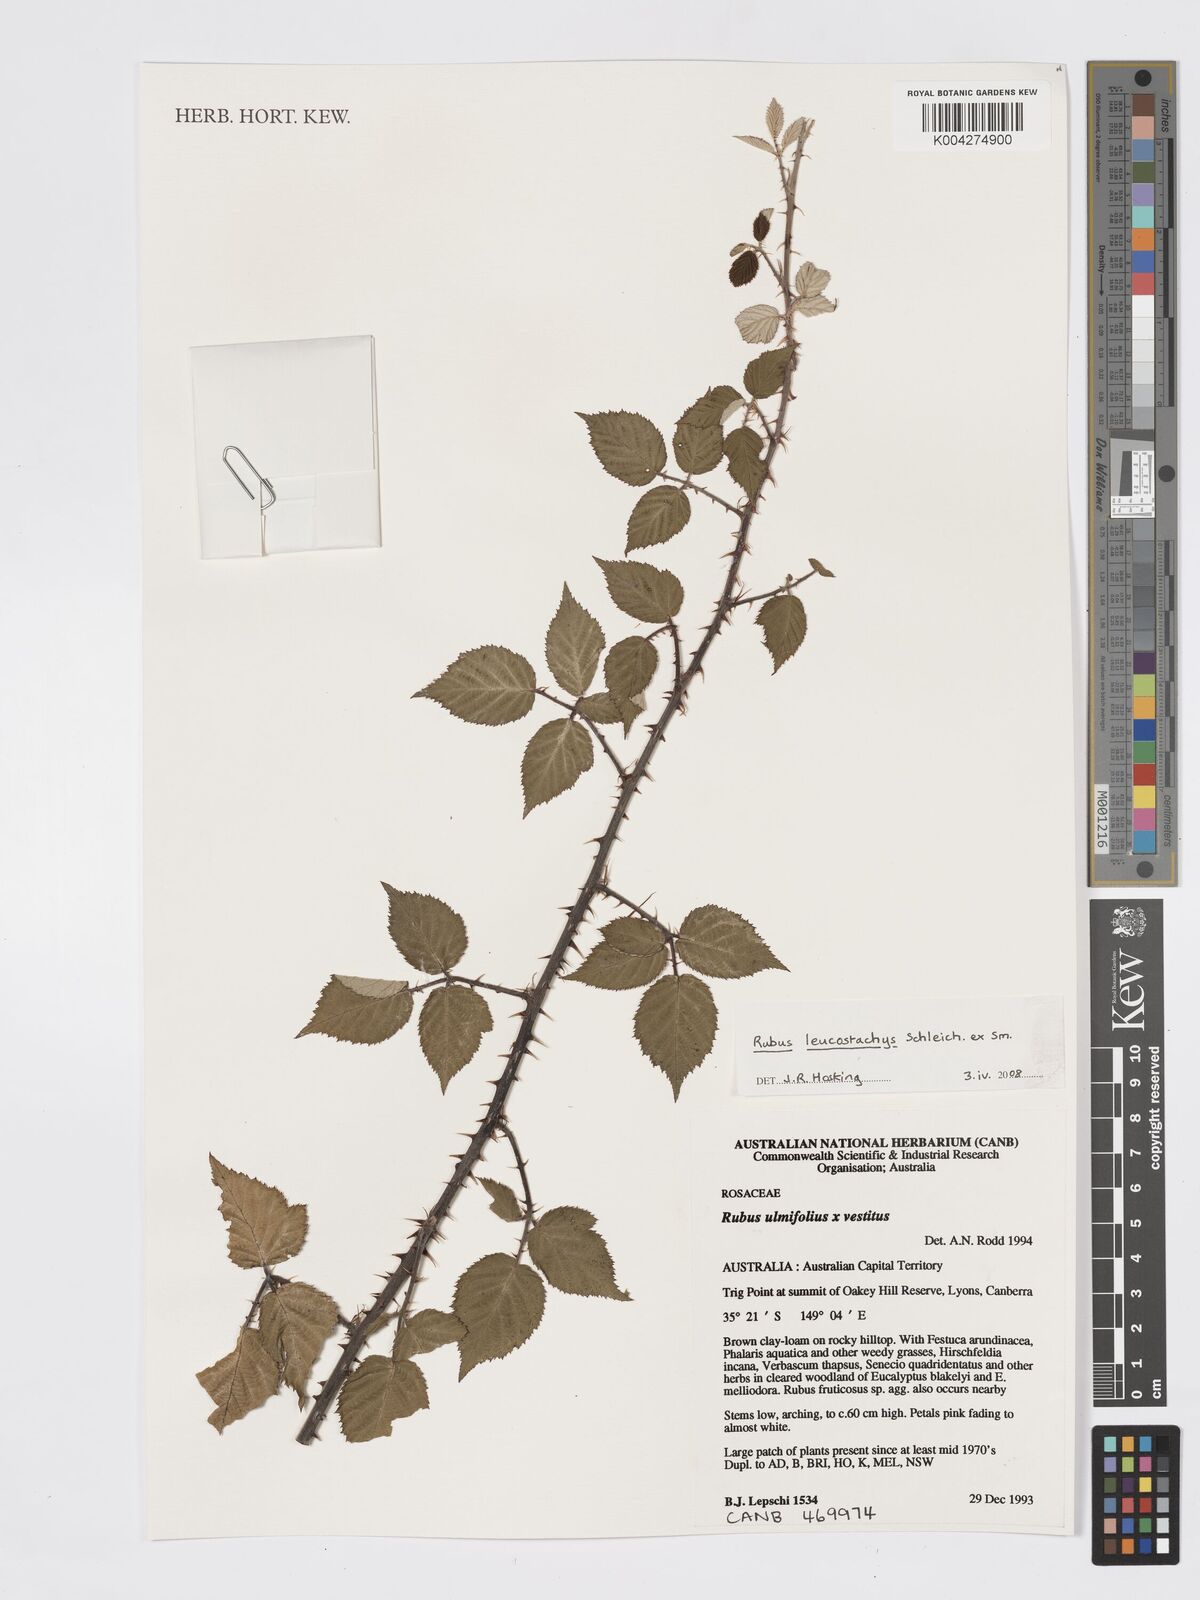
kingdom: Plantae
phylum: Tracheophyta
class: Magnoliopsida
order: Rosales
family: Rosaceae
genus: Rubus
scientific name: Rubus
